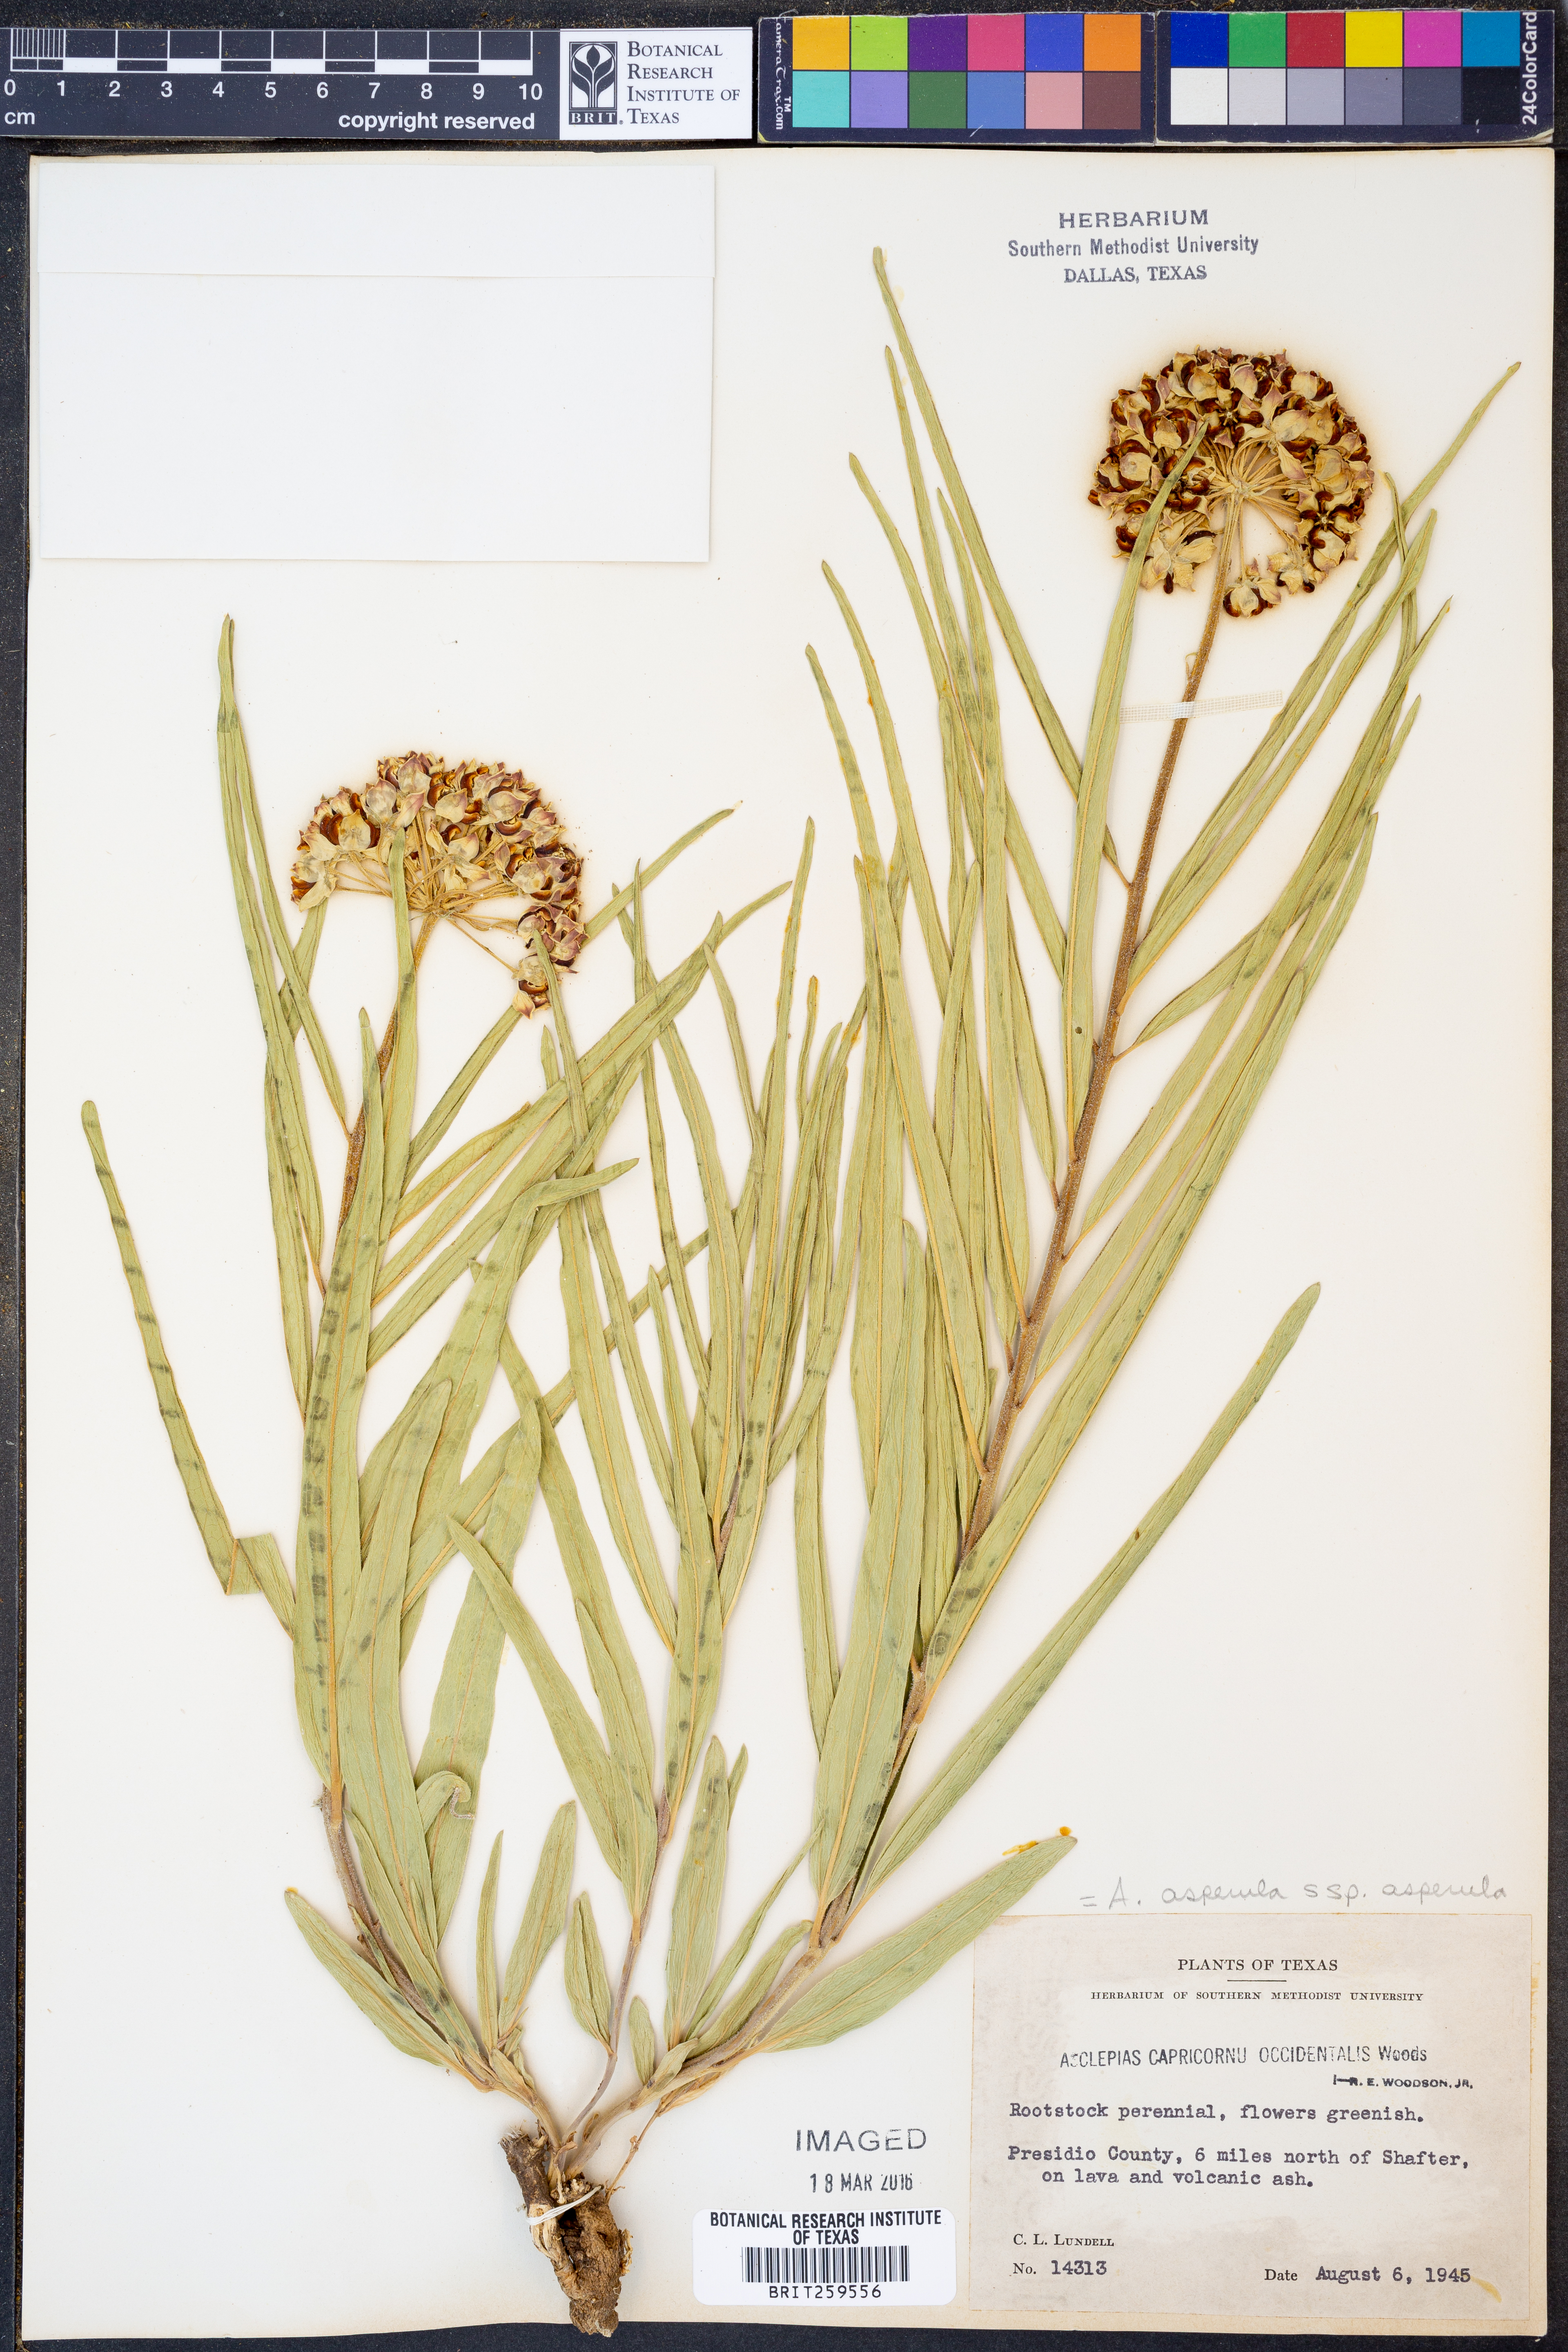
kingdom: Plantae
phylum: Tracheophyta
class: Magnoliopsida
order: Gentianales
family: Apocynaceae
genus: Asclepias
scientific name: Asclepias asperula
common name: Antelope horns
